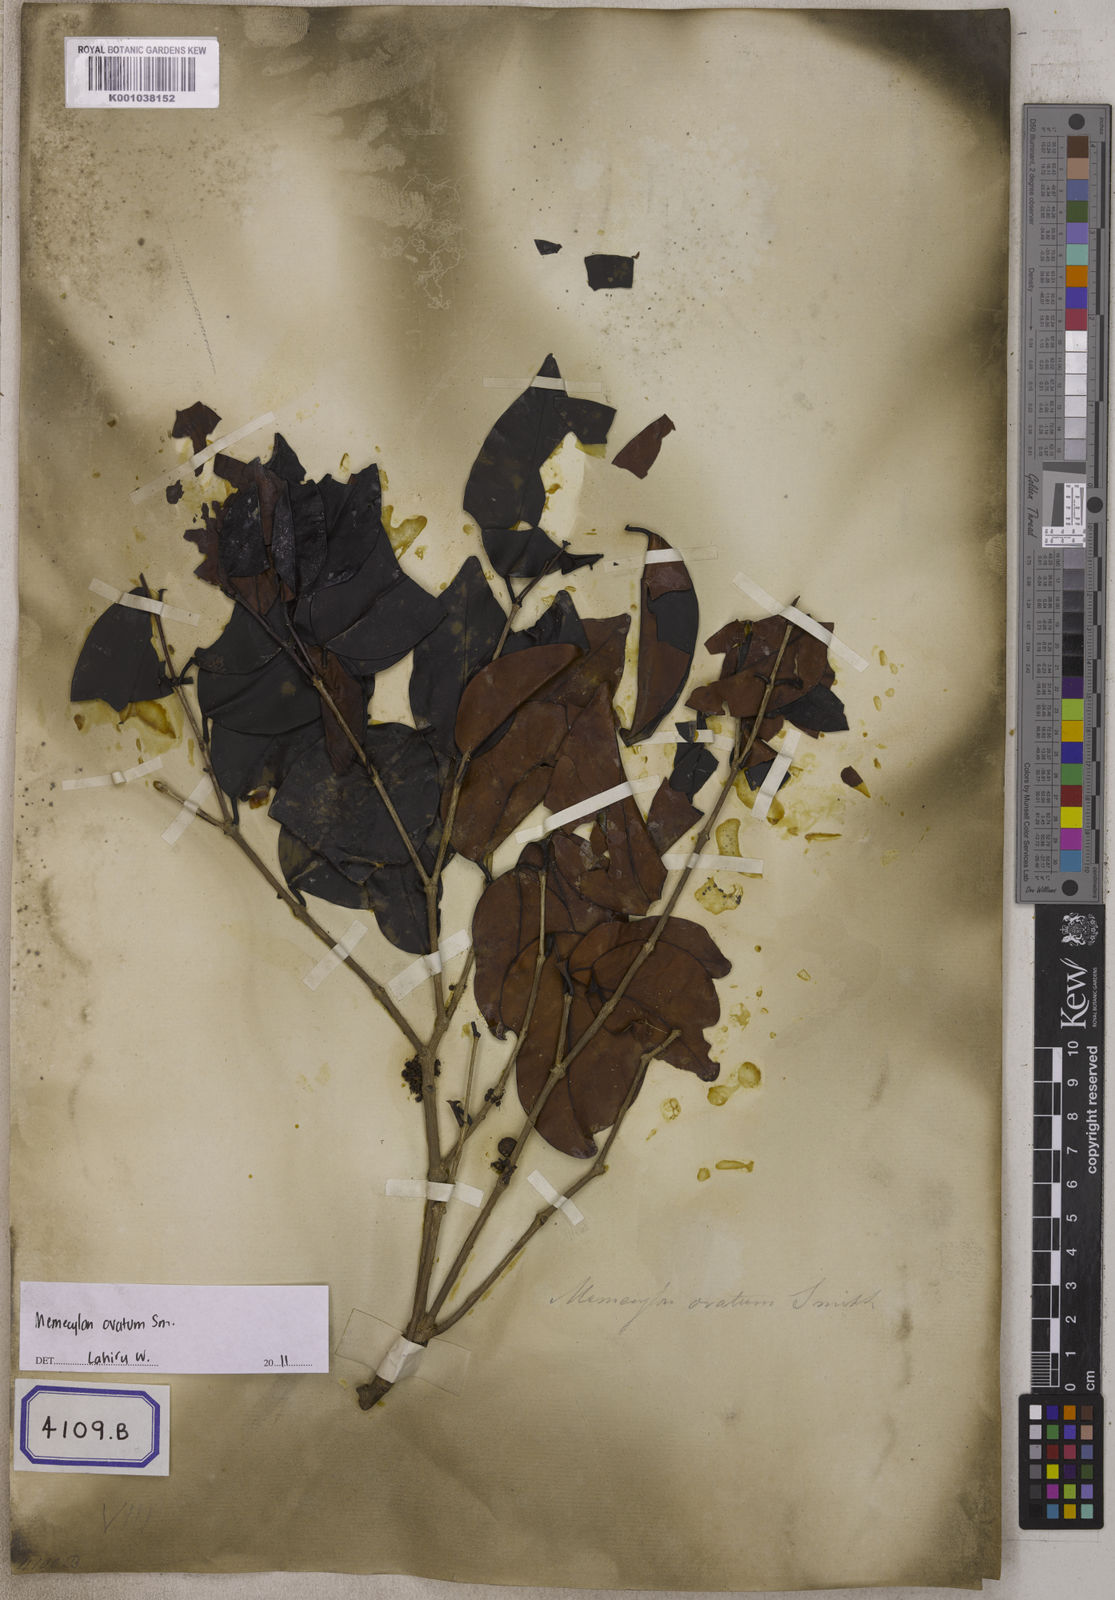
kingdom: Plantae
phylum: Tracheophyta
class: Magnoliopsida
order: Myrtales
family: Melastomataceae
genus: Memecylon
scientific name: Memecylon umbellatum
